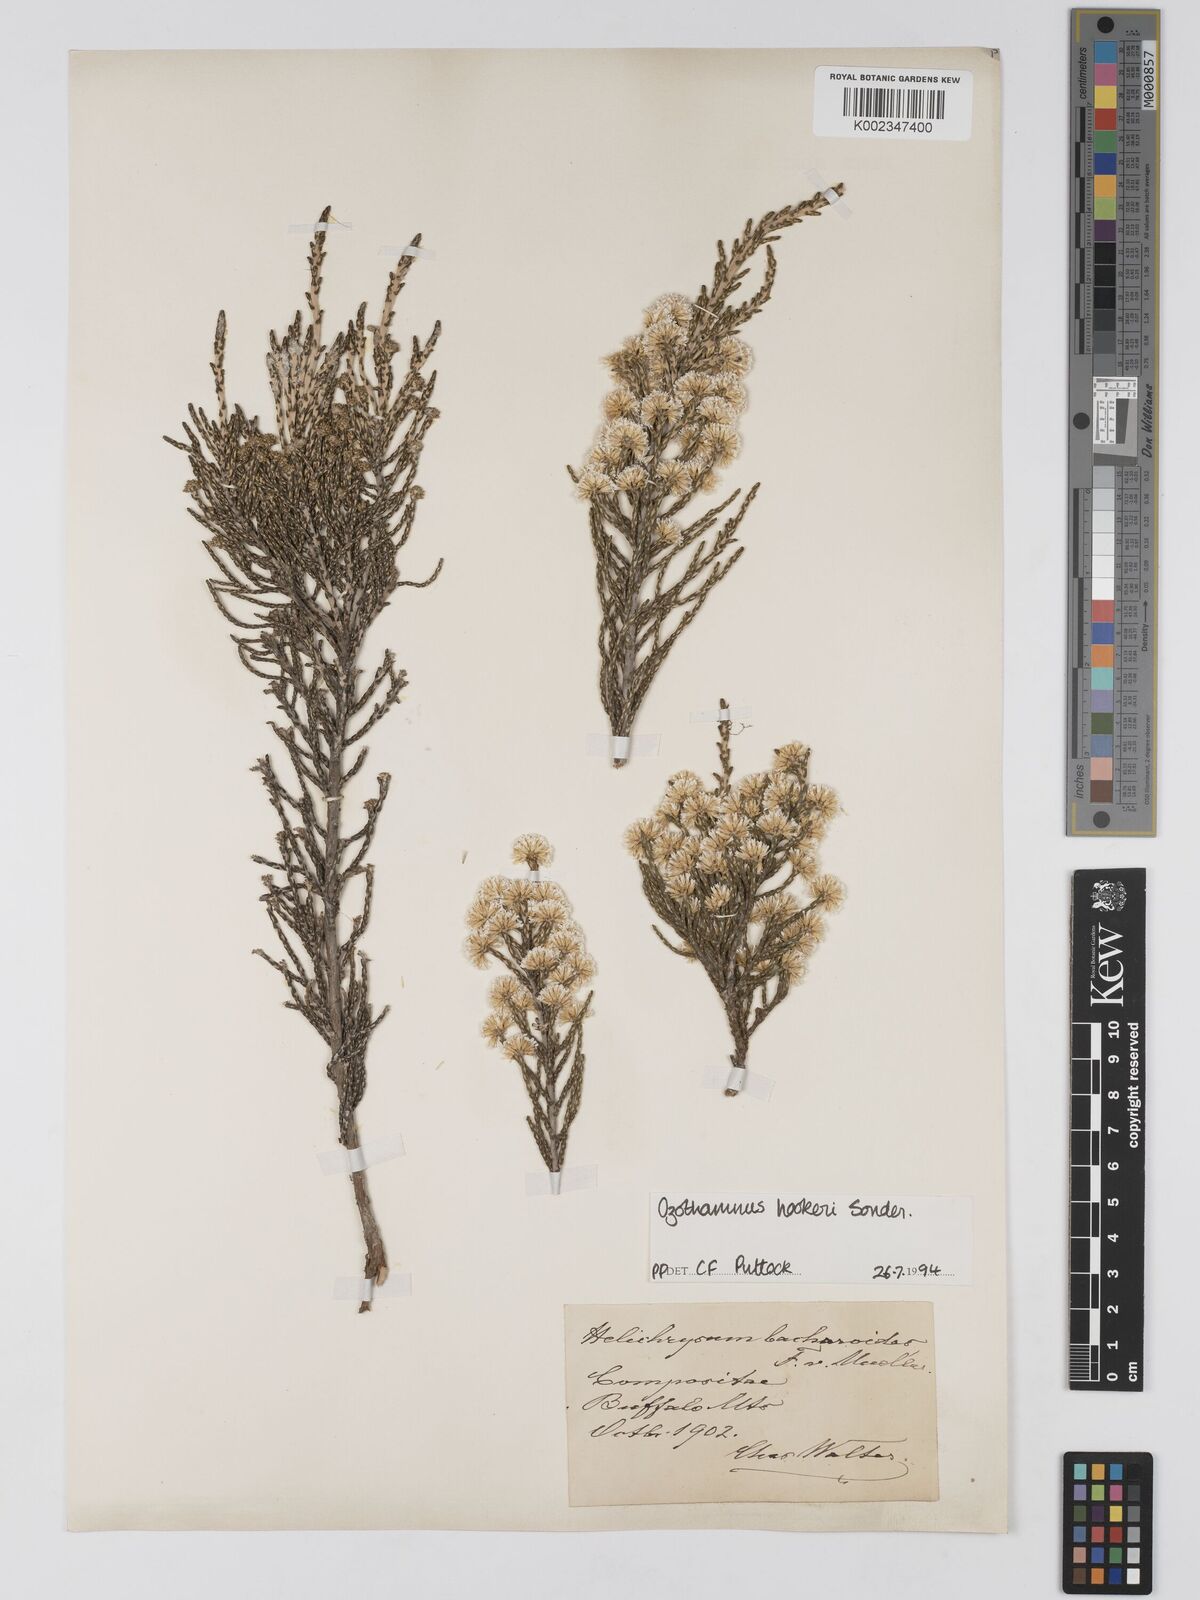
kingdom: Plantae
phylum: Tracheophyta
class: Magnoliopsida
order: Asterales
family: Asteraceae
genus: Ozothamnus
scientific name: Ozothamnus hookeri
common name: Kerosene-bush
